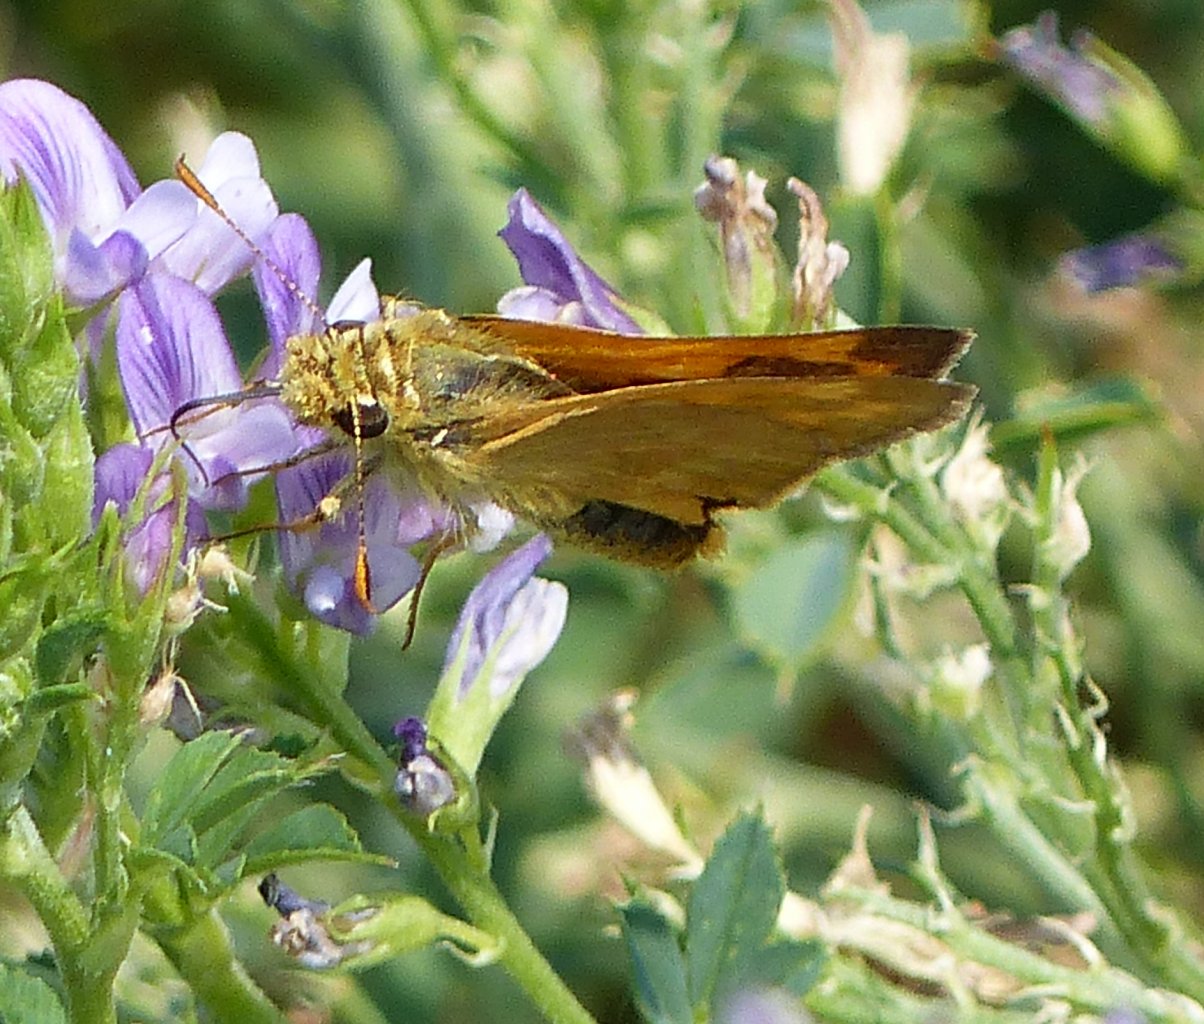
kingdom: Animalia
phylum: Arthropoda
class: Insecta
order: Lepidoptera
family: Hesperiidae
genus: Ochlodes
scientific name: Ochlodes sylvanoides
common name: Woodland Skipper
